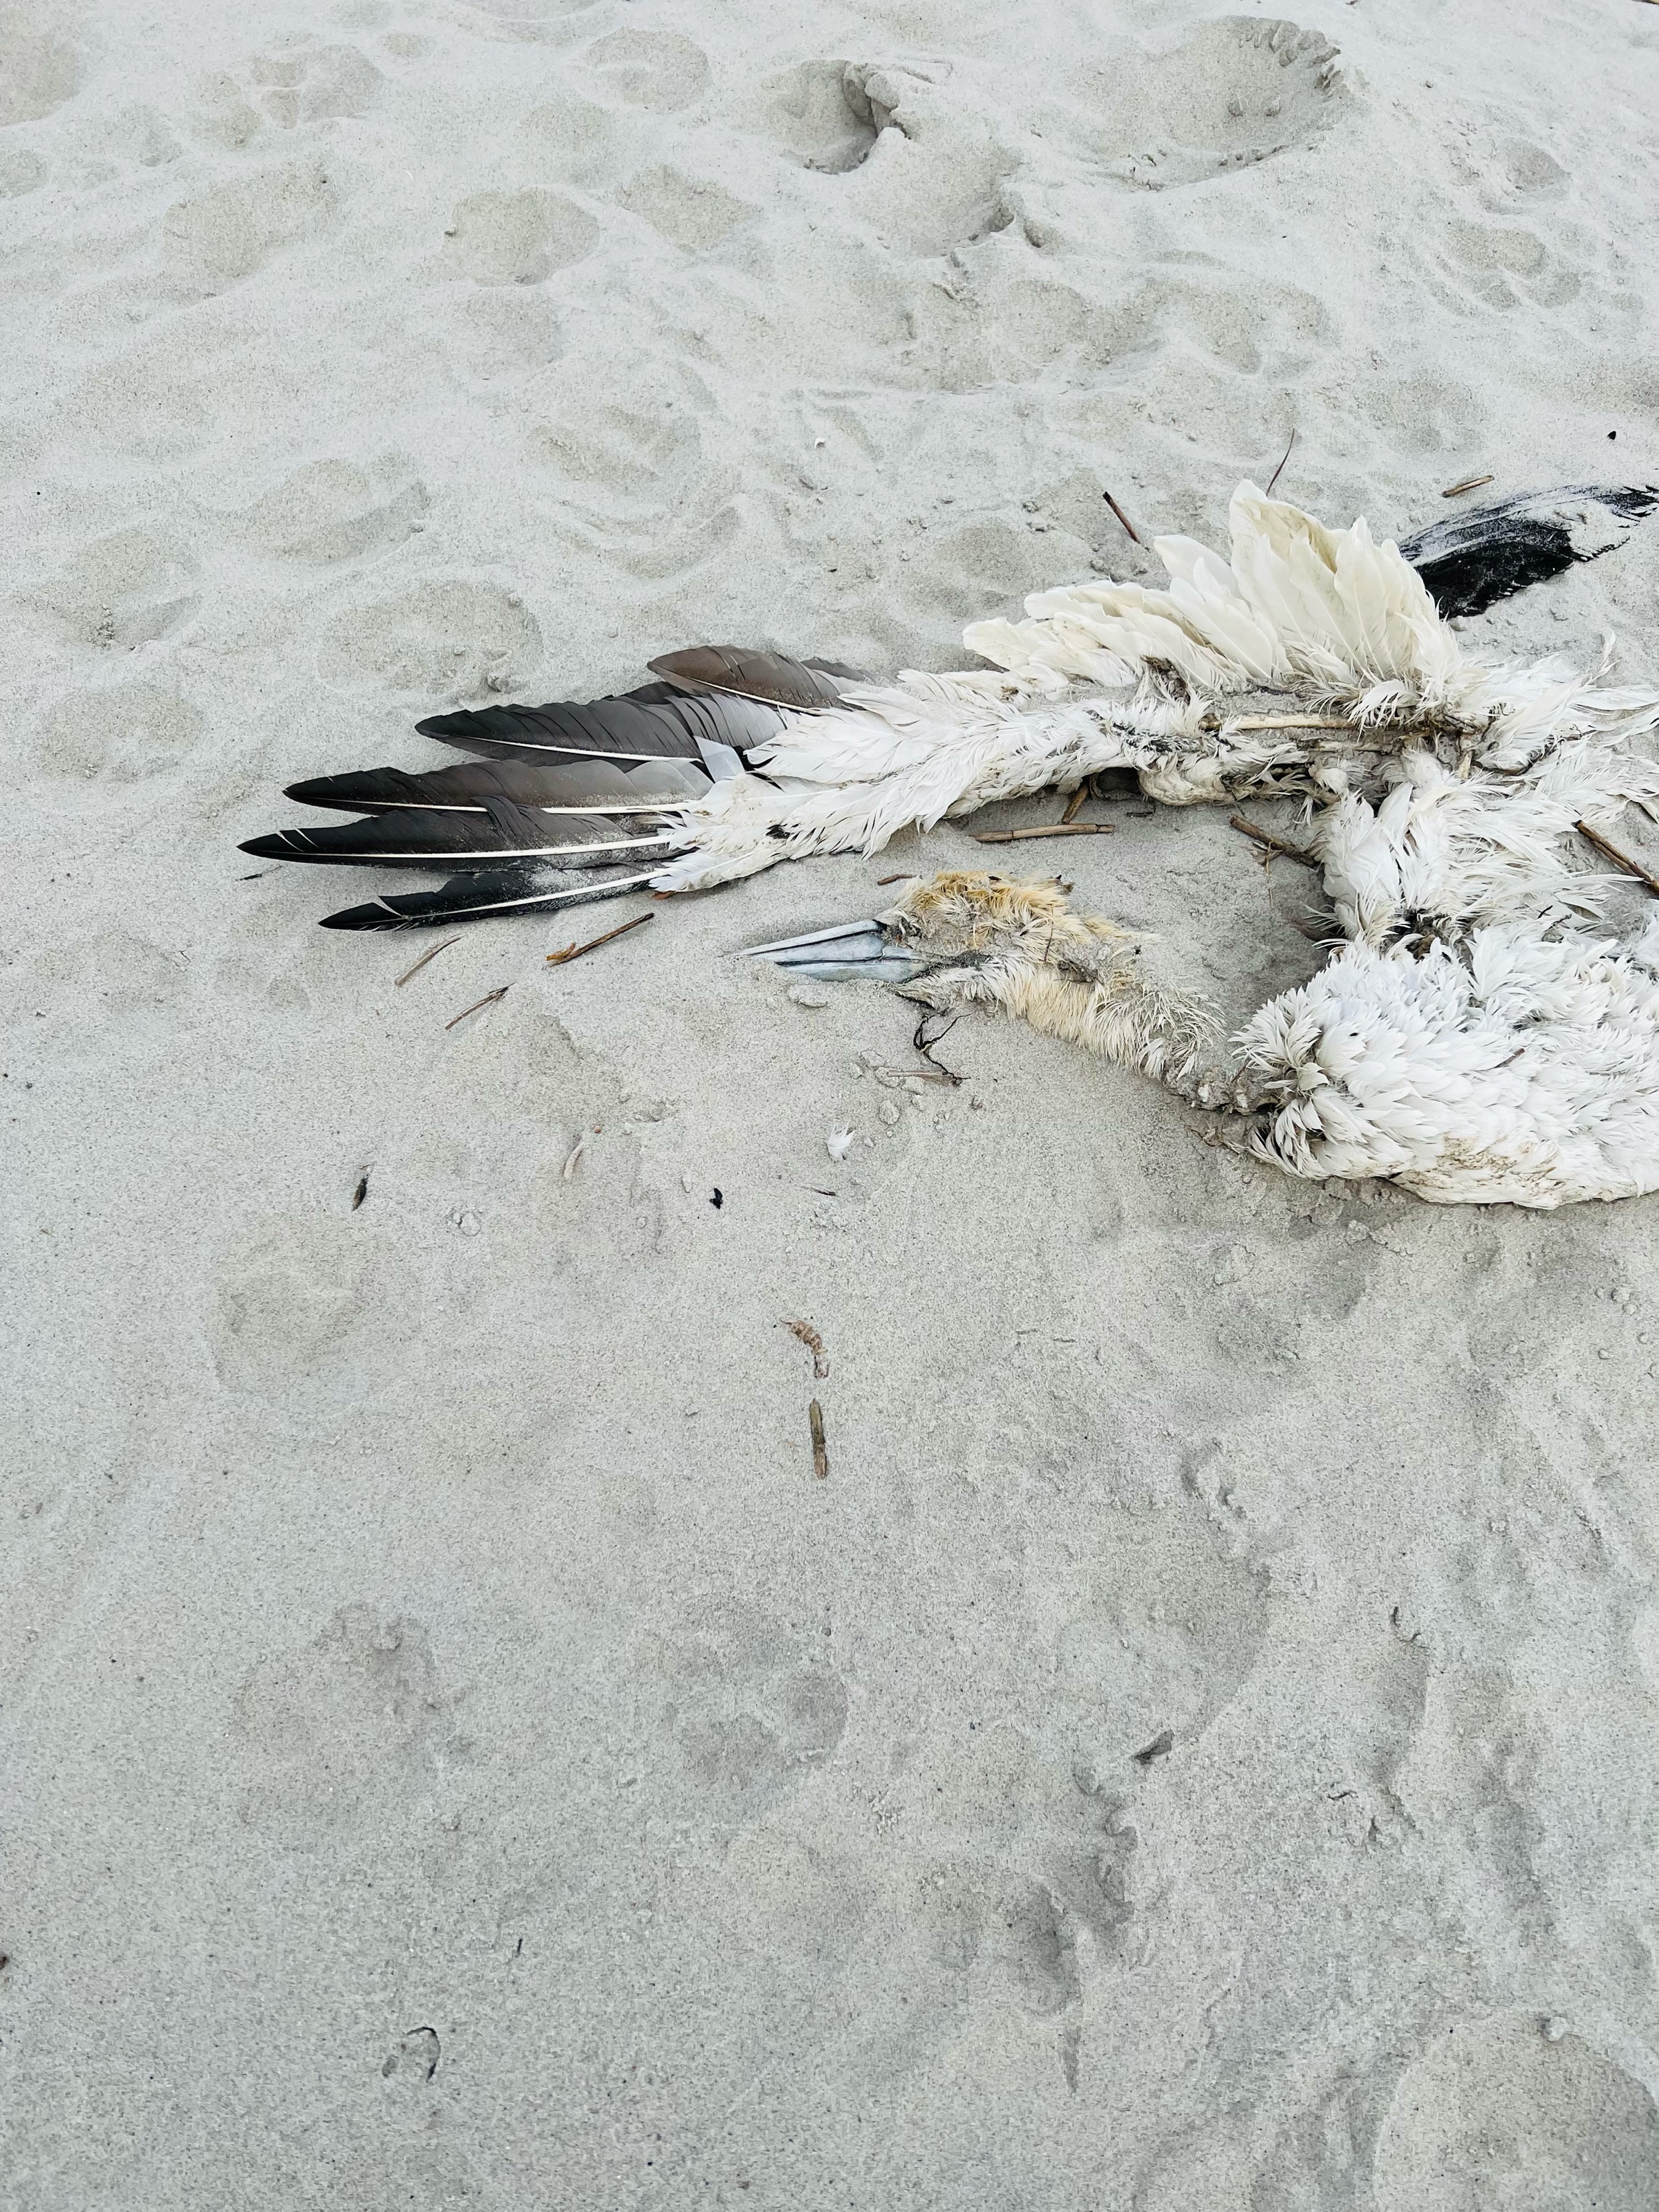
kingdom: Animalia
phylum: Chordata
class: Aves
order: Suliformes
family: Sulidae
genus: Morus
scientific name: Morus bassanus
